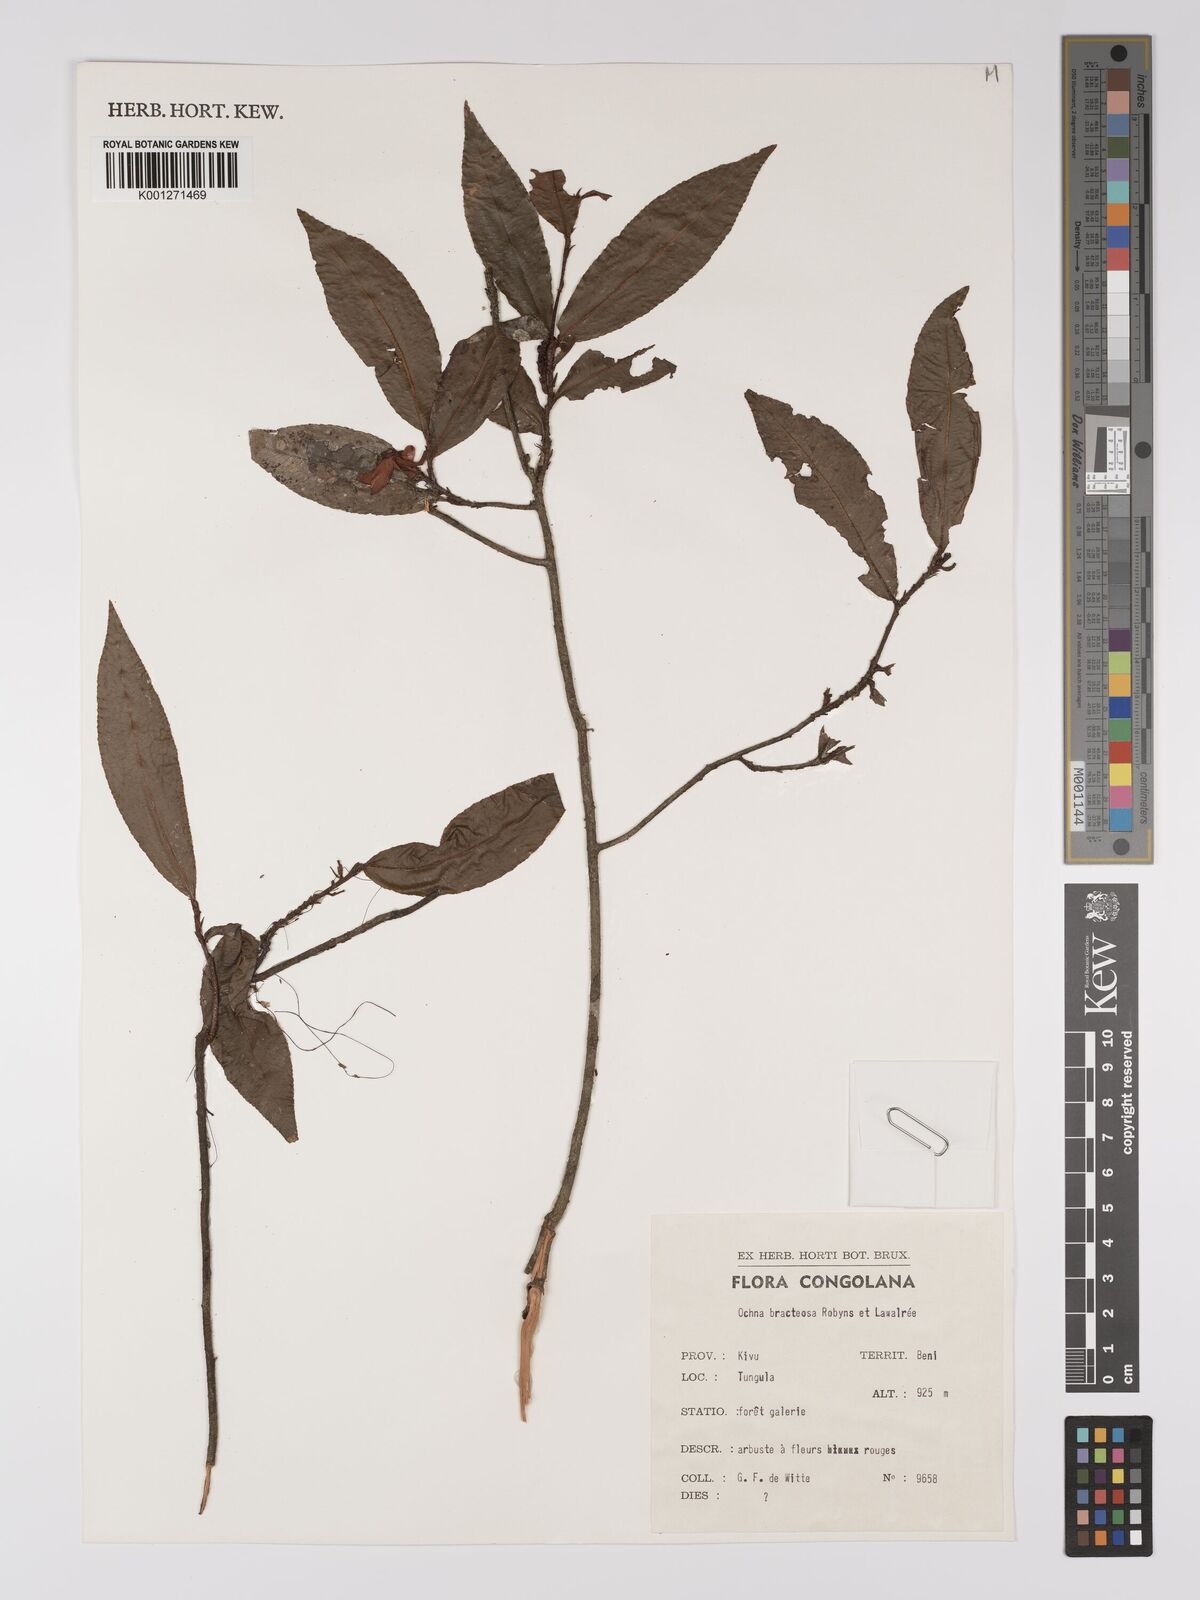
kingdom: Plantae
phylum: Tracheophyta
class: Magnoliopsida
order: Malpighiales
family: Ochnaceae
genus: Ochna
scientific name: Ochna bracteosa
